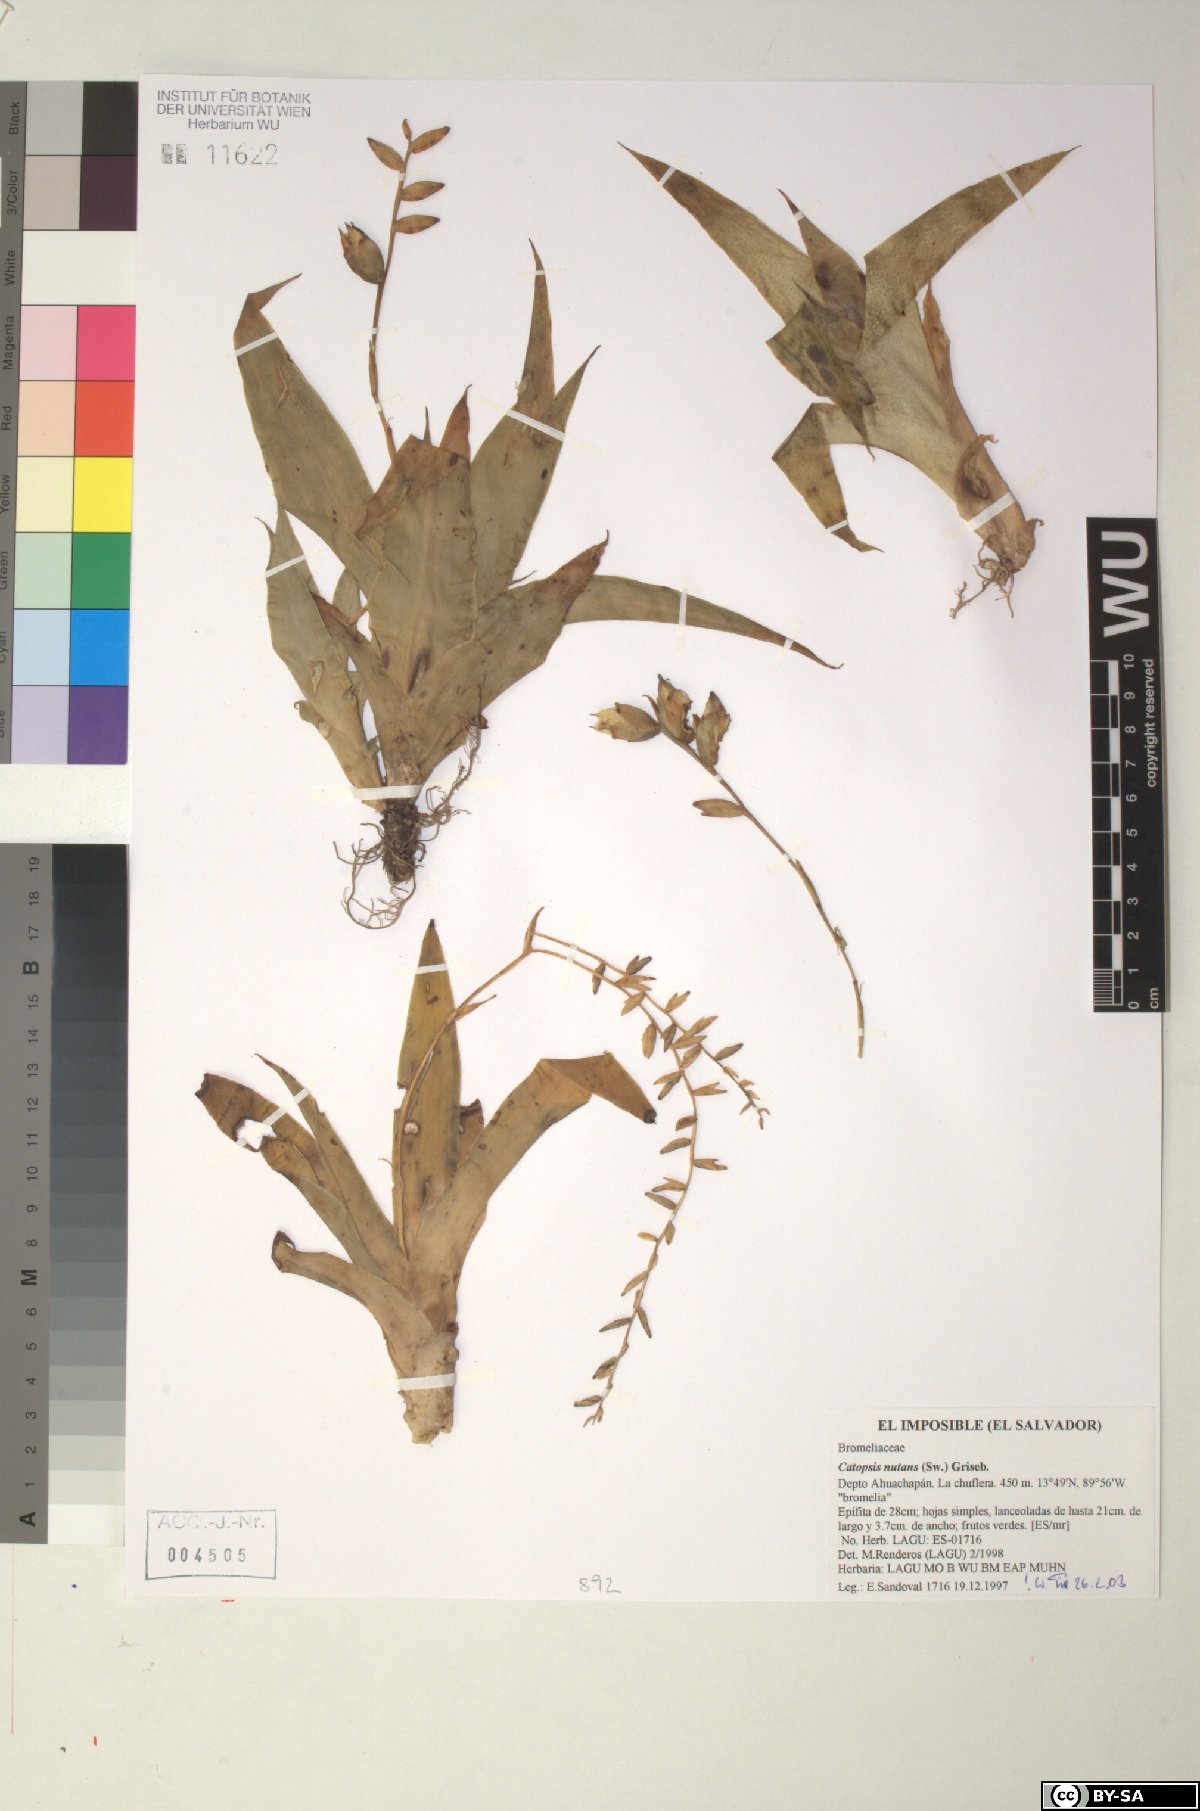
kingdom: Plantae
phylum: Tracheophyta
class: Liliopsida
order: Poales
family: Bromeliaceae
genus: Catopsis
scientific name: Catopsis nutans
